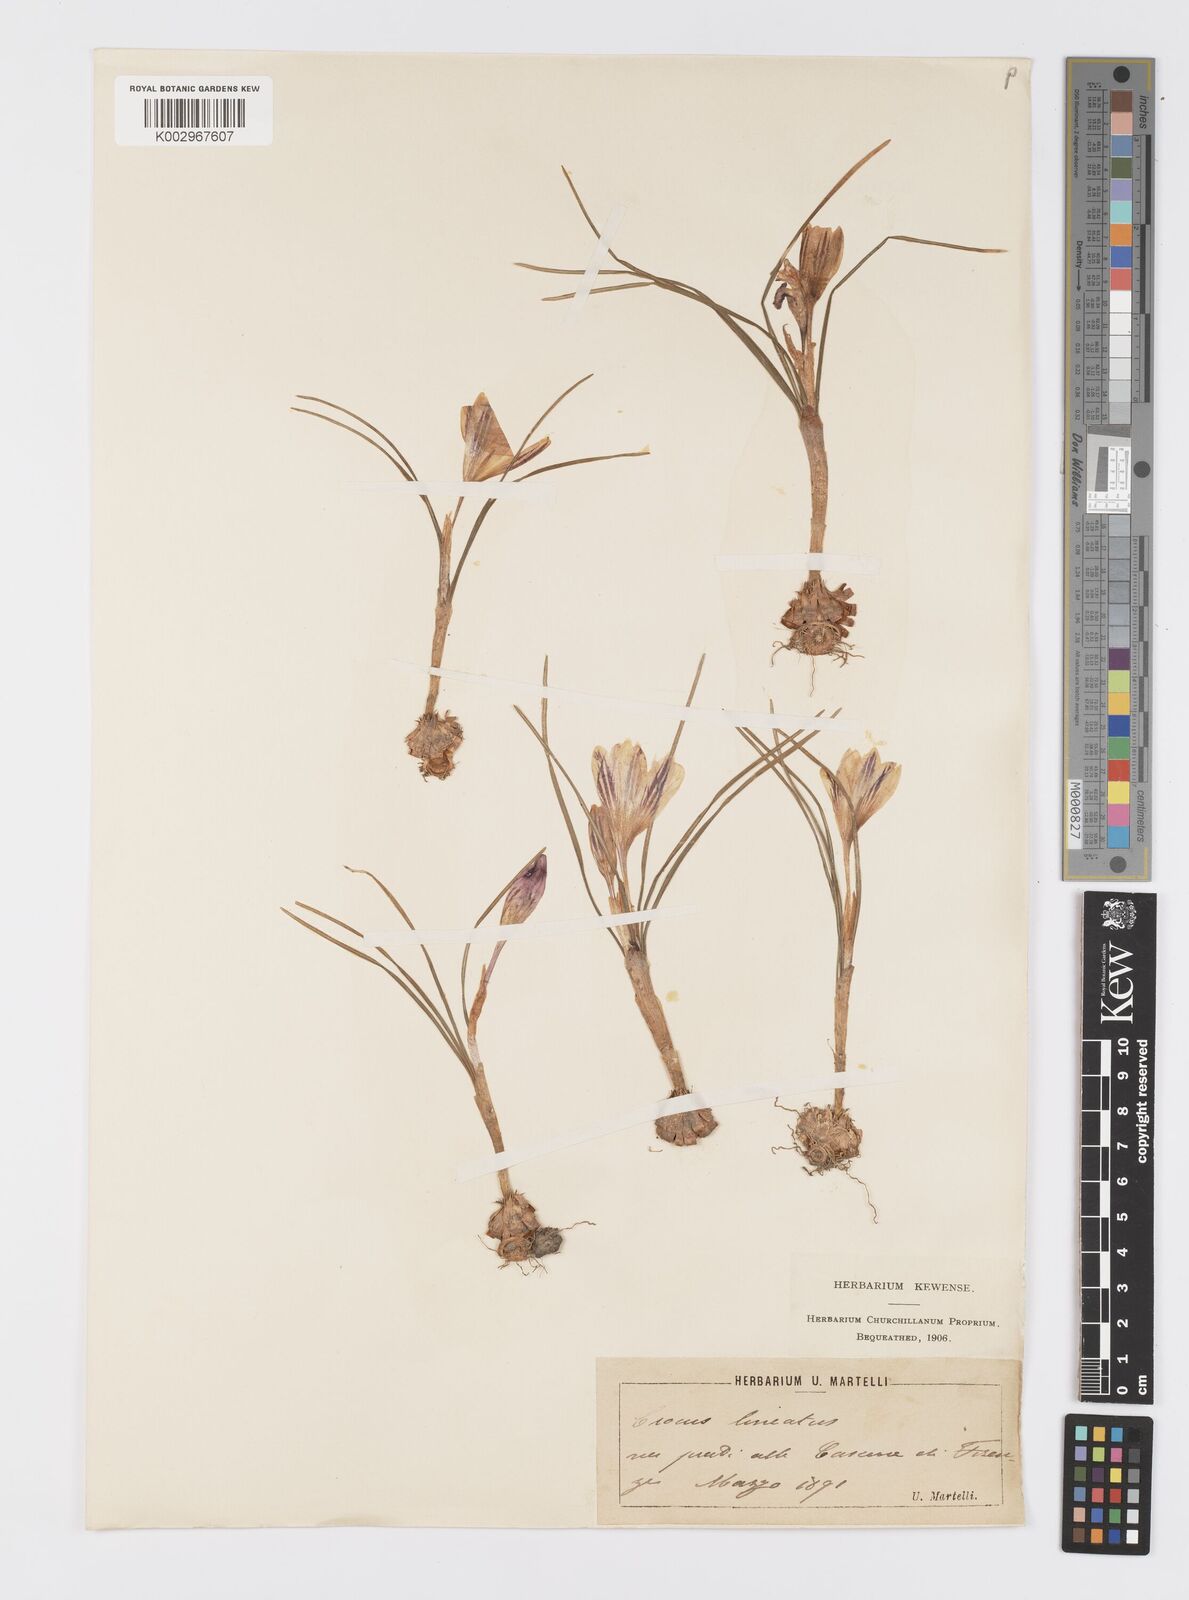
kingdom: Plantae
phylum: Tracheophyta
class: Liliopsida
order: Asparagales
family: Iridaceae
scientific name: Iridaceae
